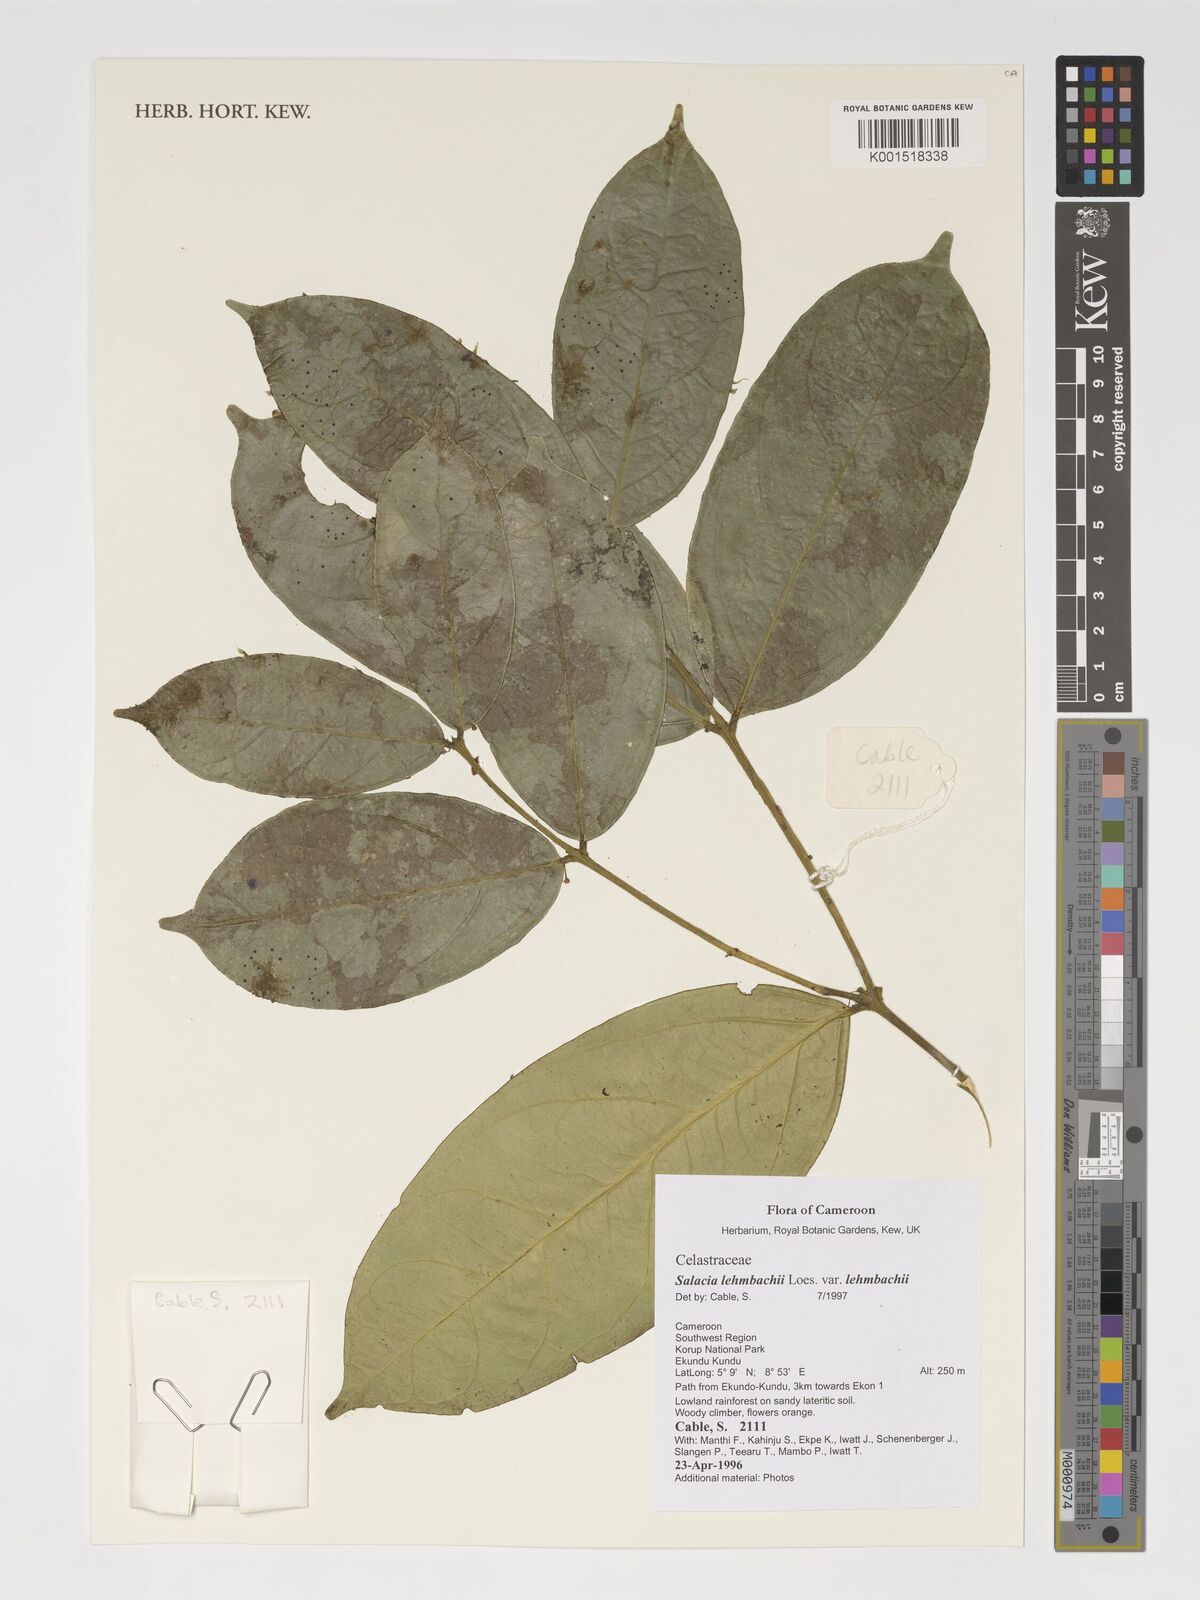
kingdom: Plantae
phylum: Tracheophyta
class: Magnoliopsida
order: Celastrales
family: Celastraceae
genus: Salacia
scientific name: Salacia lehmbachii
